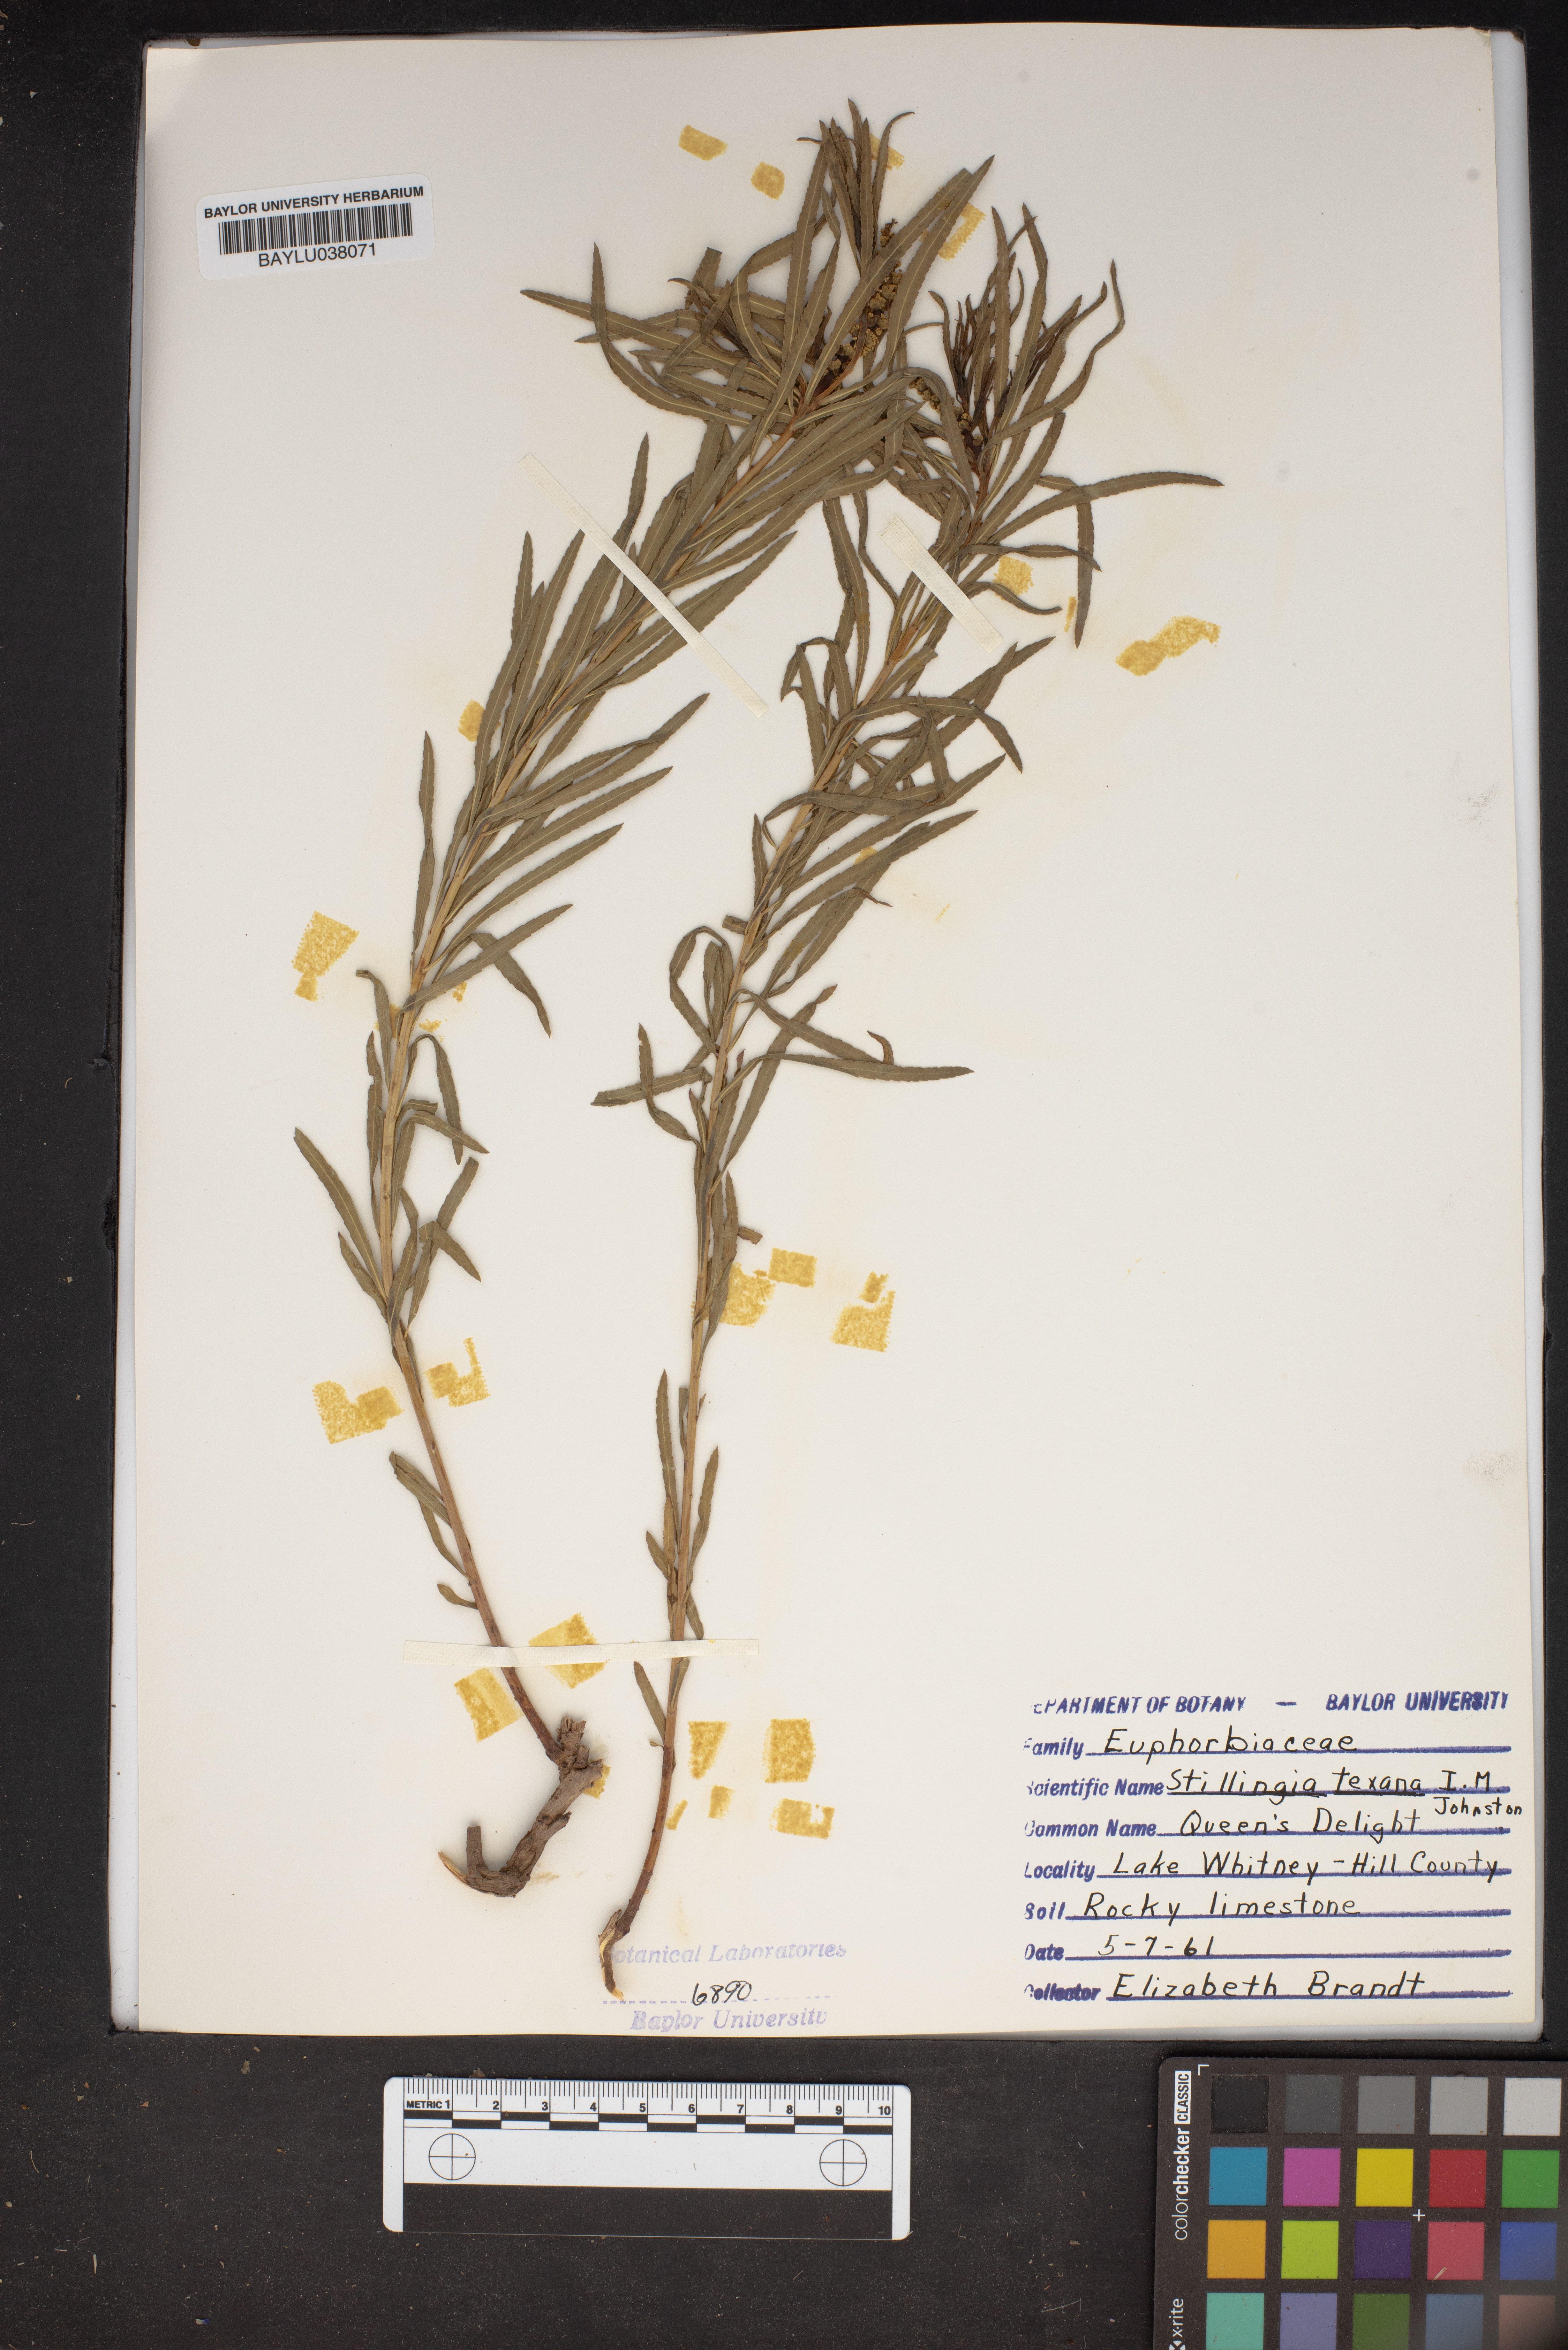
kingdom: Plantae
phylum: Tracheophyta
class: Magnoliopsida
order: Malpighiales
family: Euphorbiaceae
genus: Stillingia
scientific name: Stillingia texana
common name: Texas stillingia
